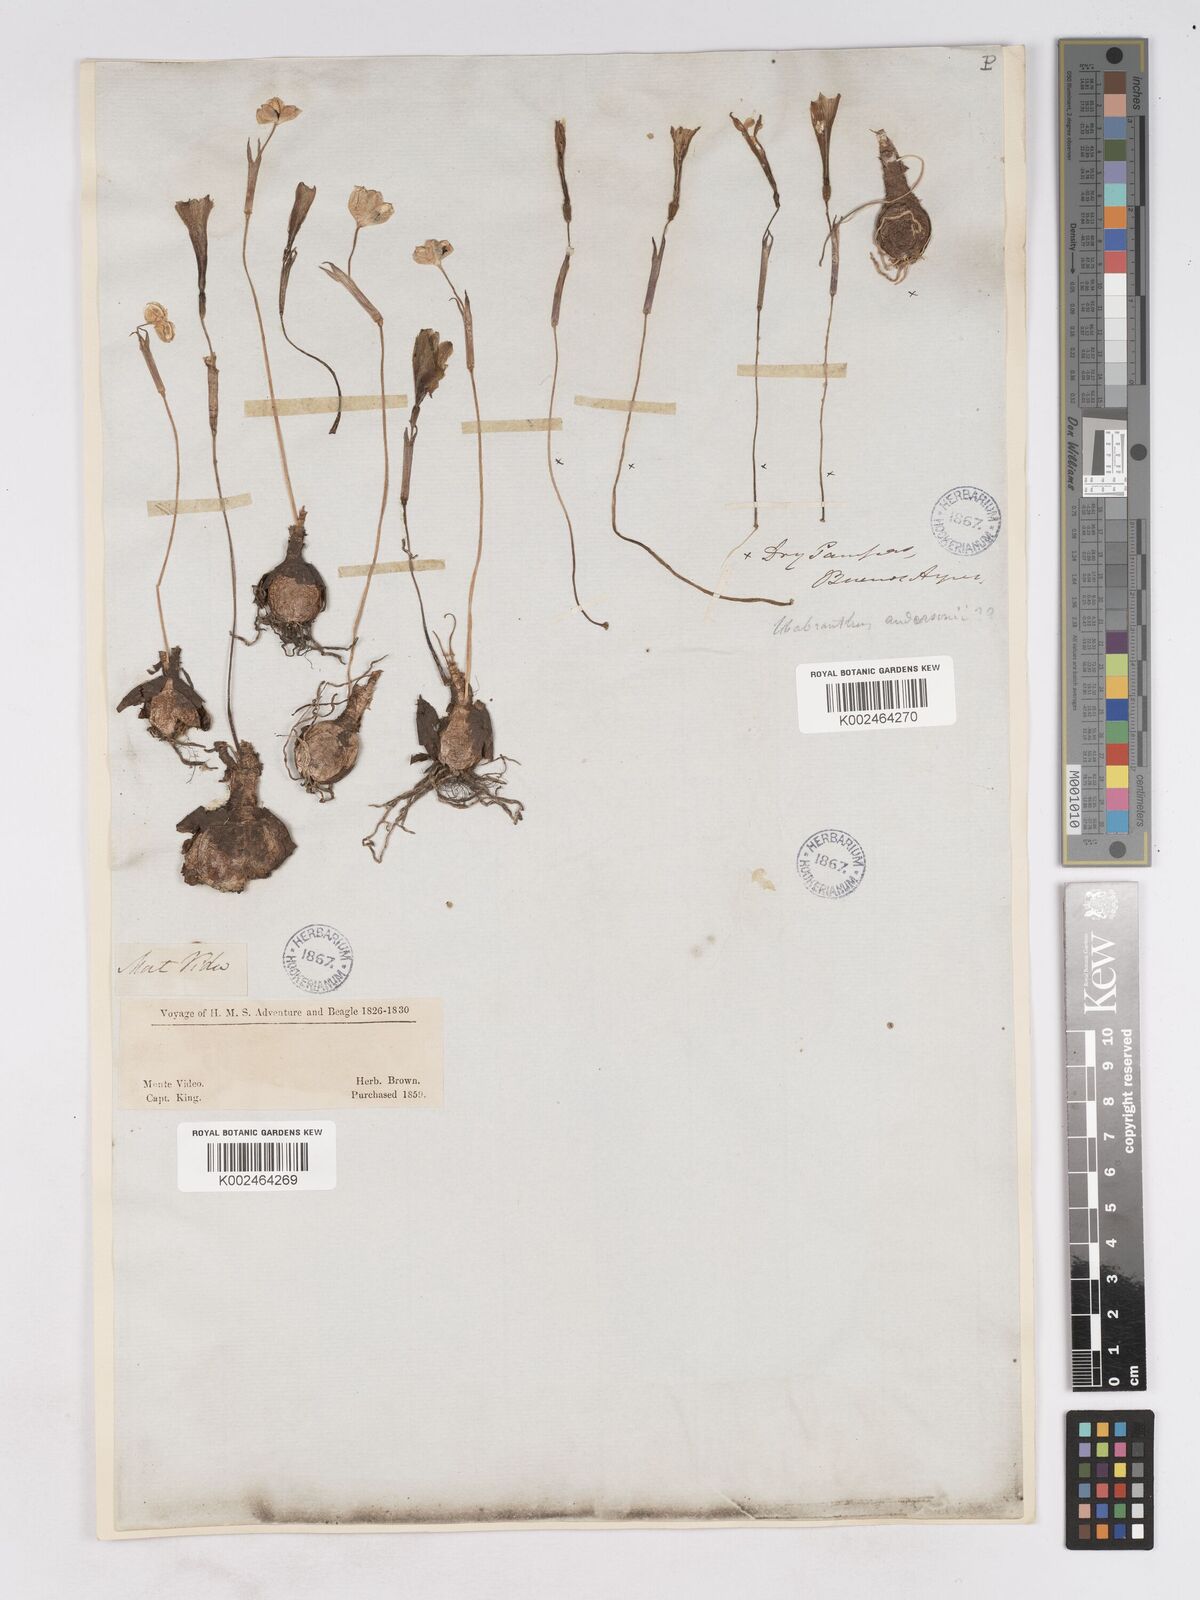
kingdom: Plantae
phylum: Tracheophyta
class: Liliopsida
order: Asparagales
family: Amaryllidaceae
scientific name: Amaryllidaceae
